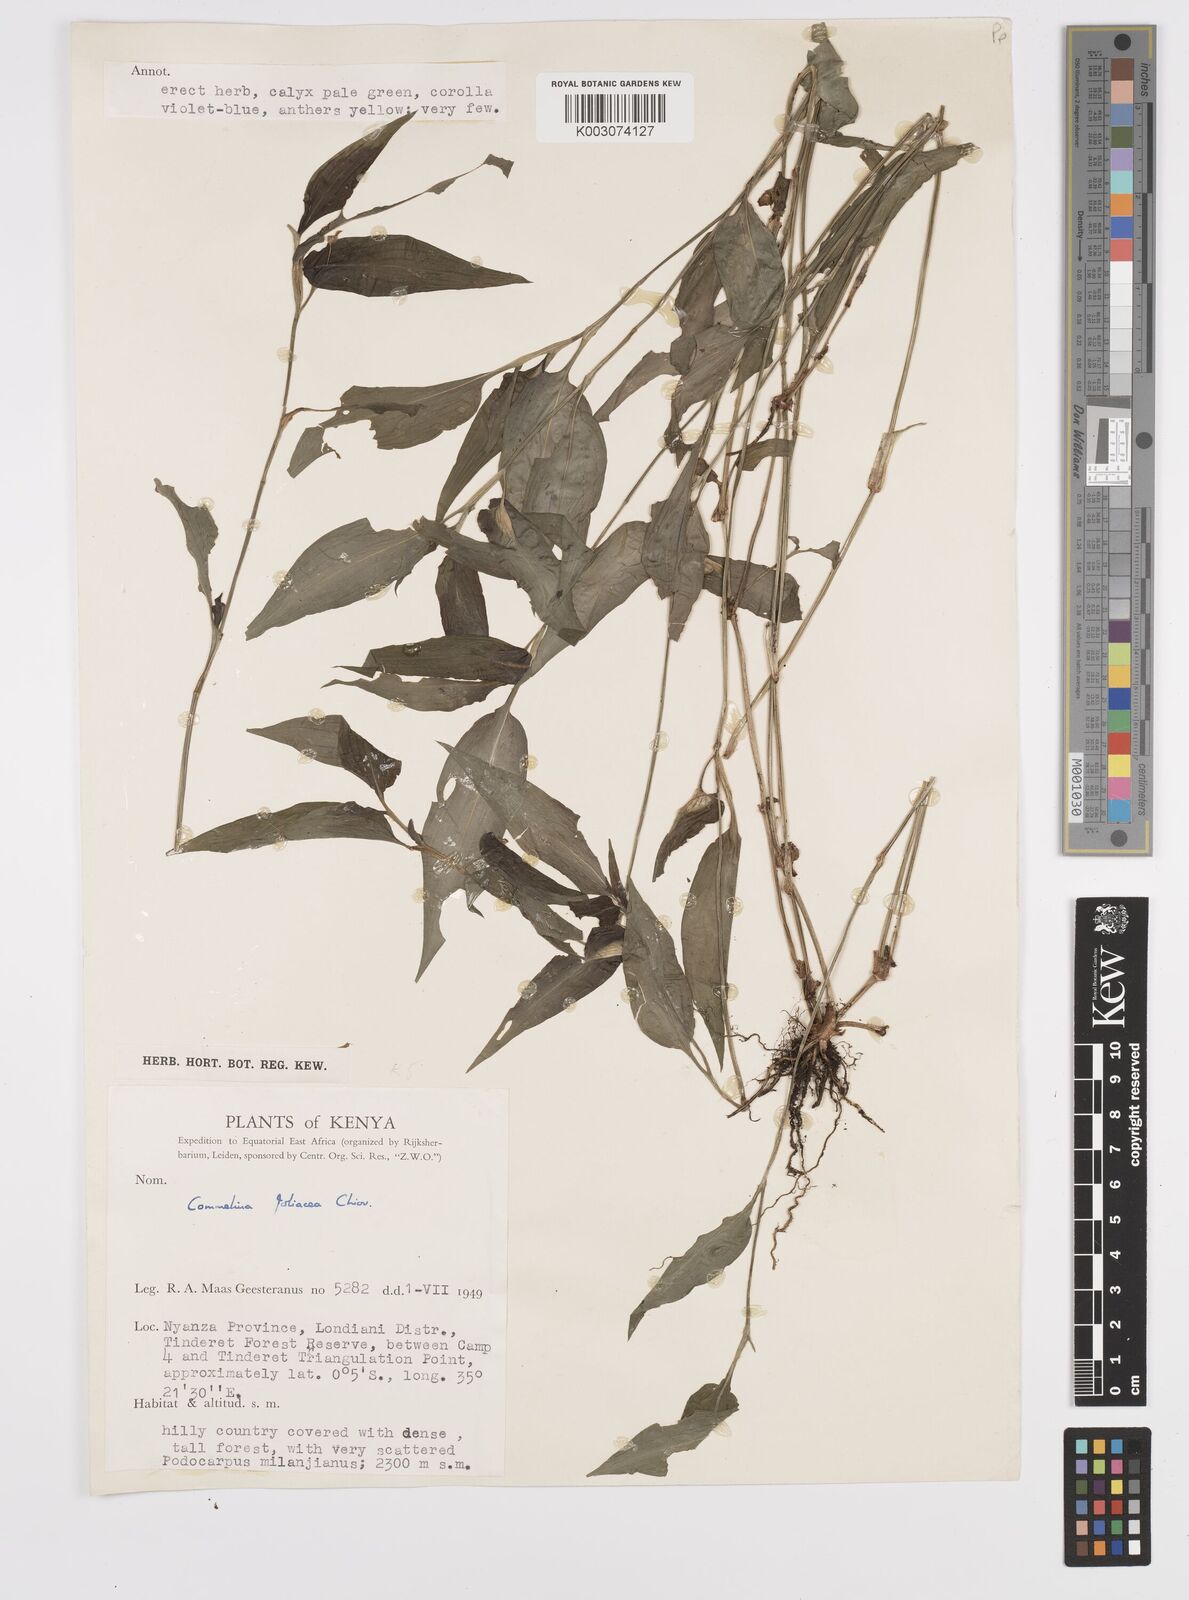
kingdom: Plantae
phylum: Tracheophyta
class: Liliopsida
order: Commelinales
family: Commelinaceae
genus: Commelina
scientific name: Commelina foliacea
